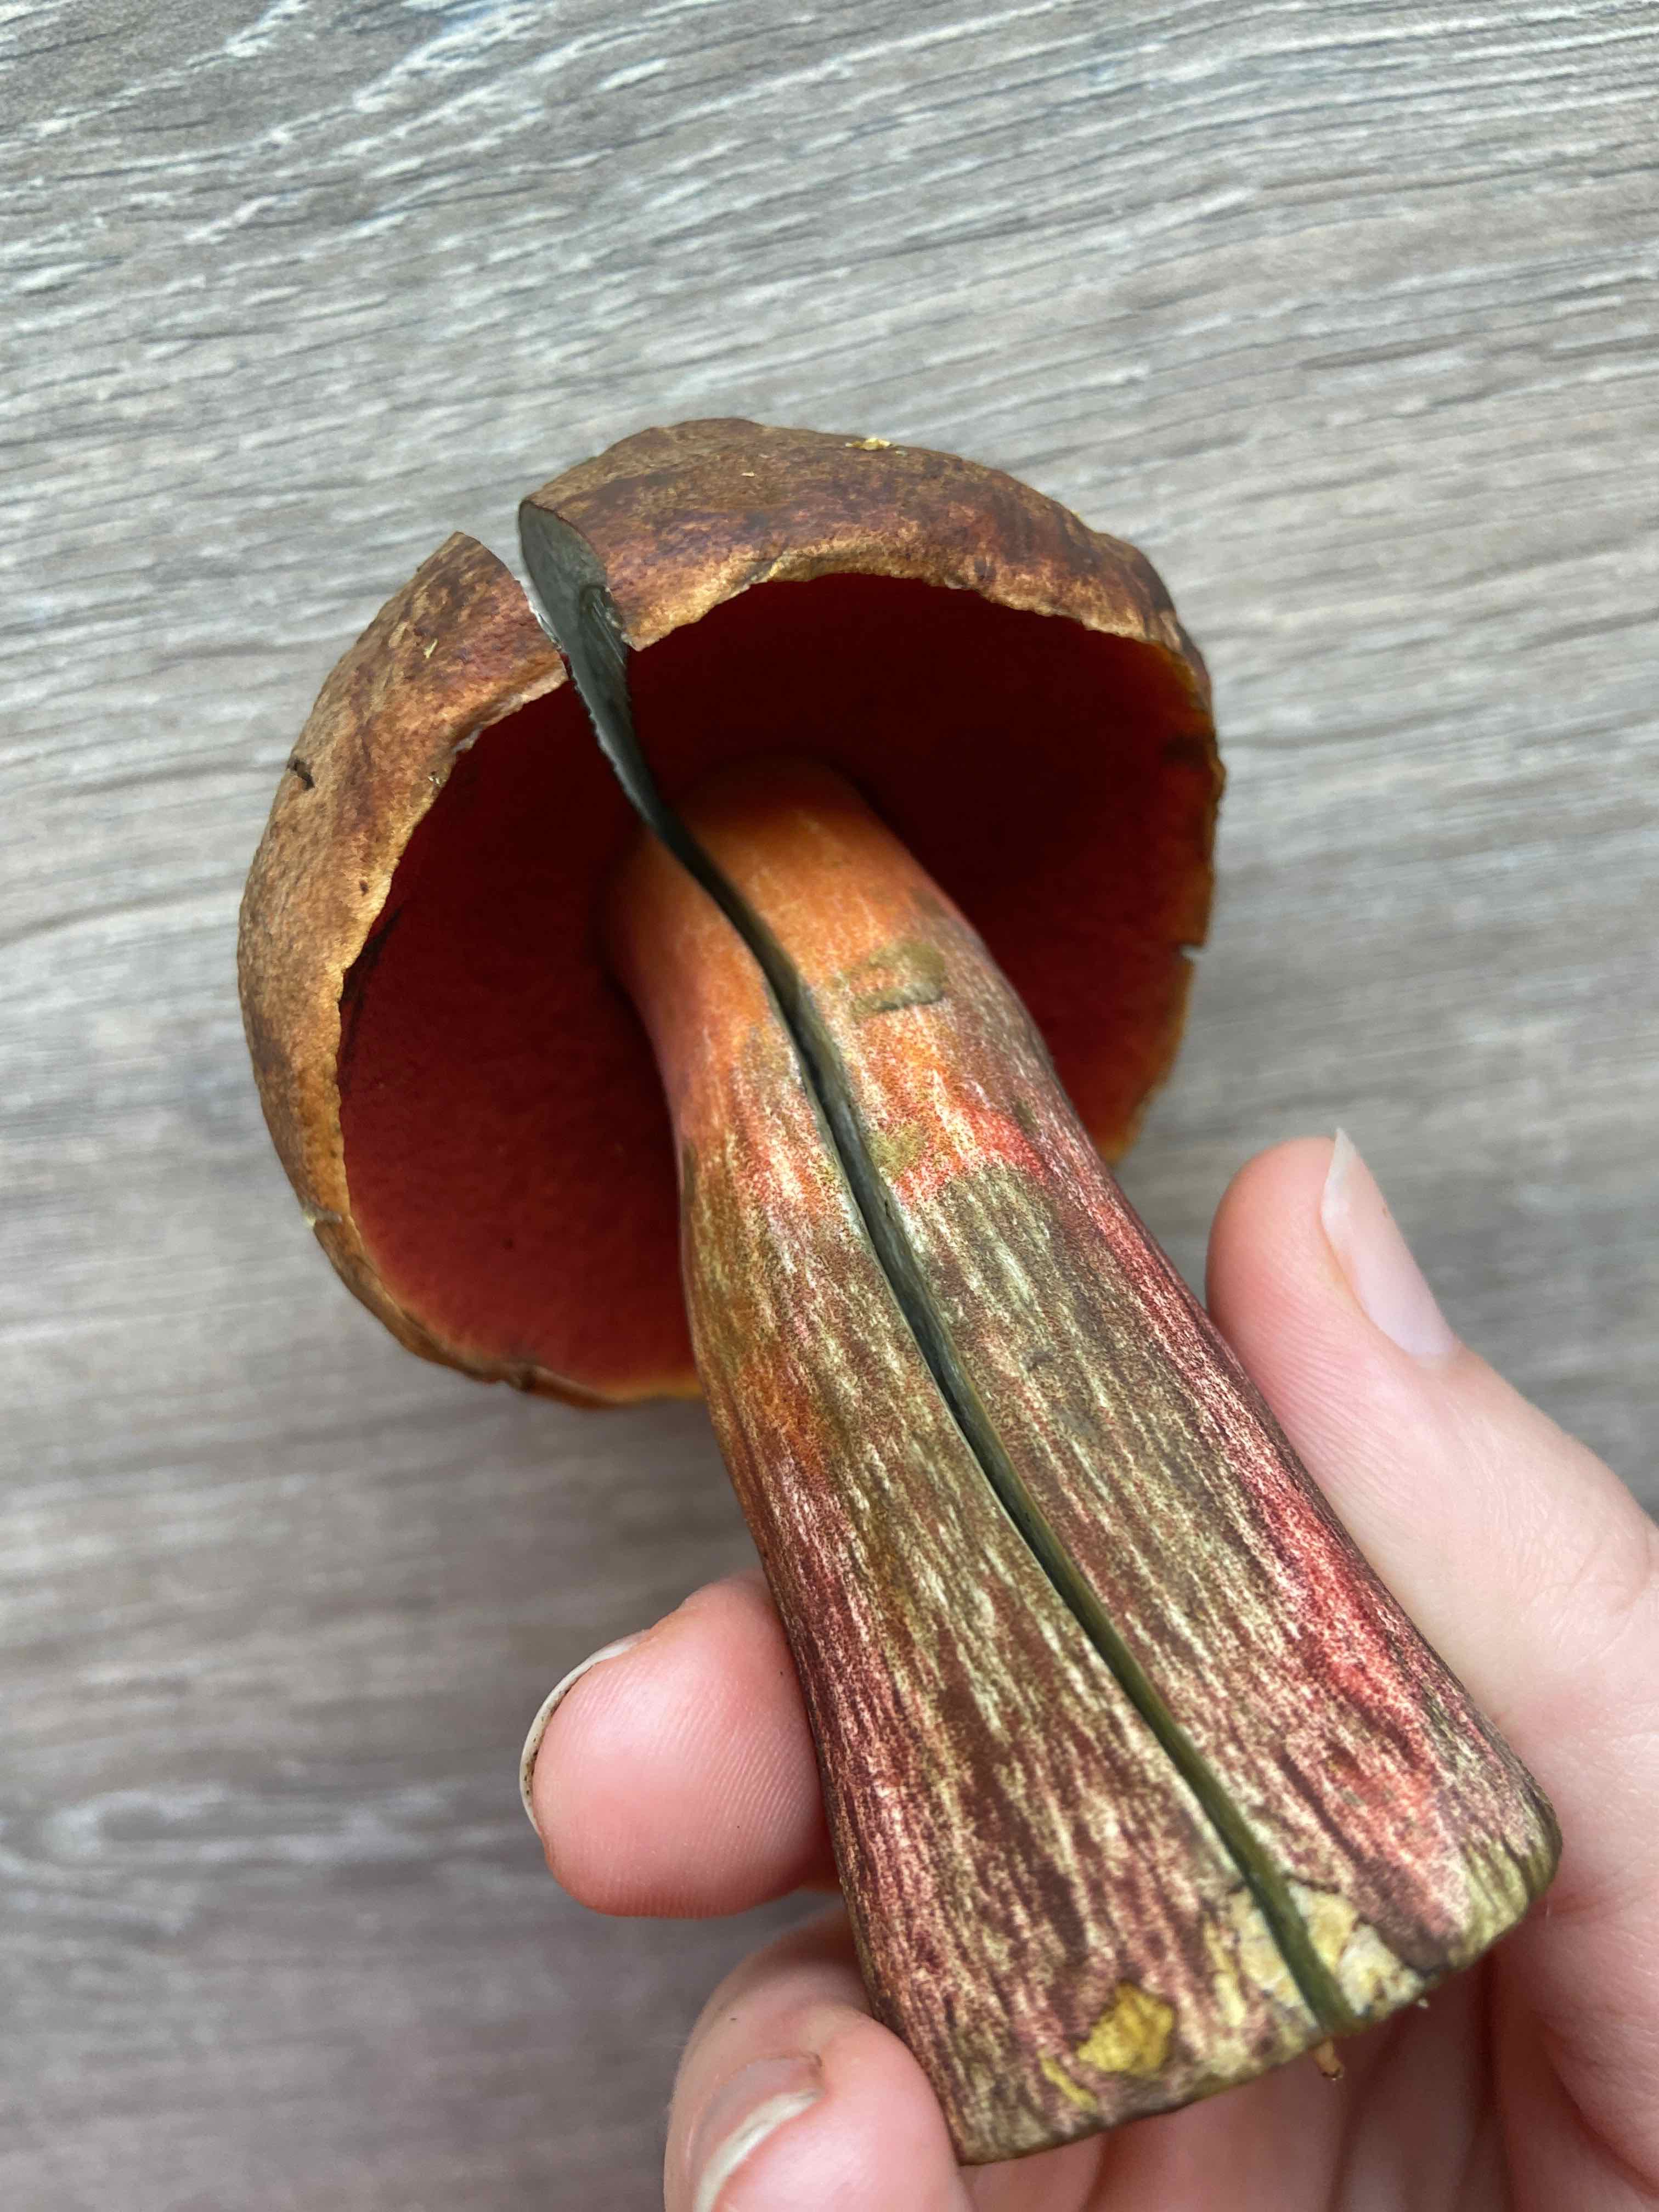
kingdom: Fungi
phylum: Basidiomycota
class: Agaricomycetes
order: Boletales
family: Boletaceae
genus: Neoboletus
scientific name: Neoboletus erythropus
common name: punktstokket indigorørhat
